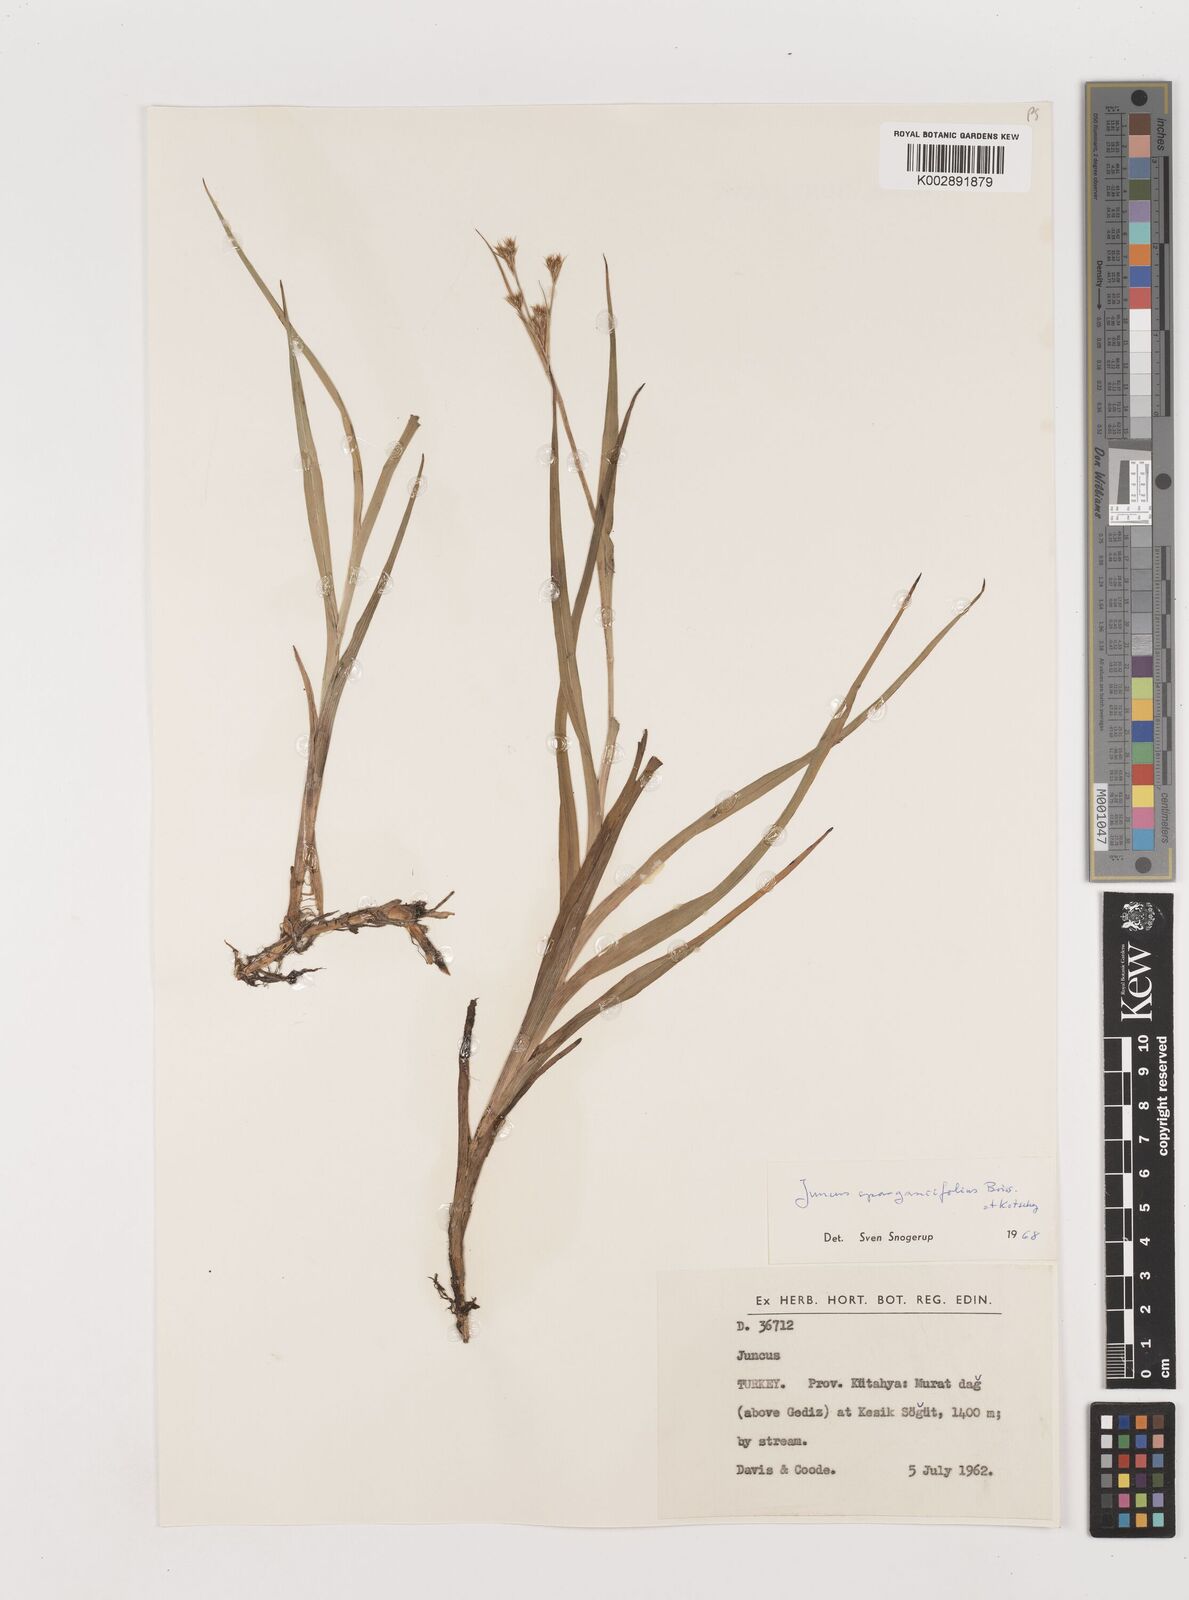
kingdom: Plantae
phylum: Tracheophyta
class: Liliopsida
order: Poales
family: Juncaceae
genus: Juncus
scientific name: Juncus sparganiifolius
